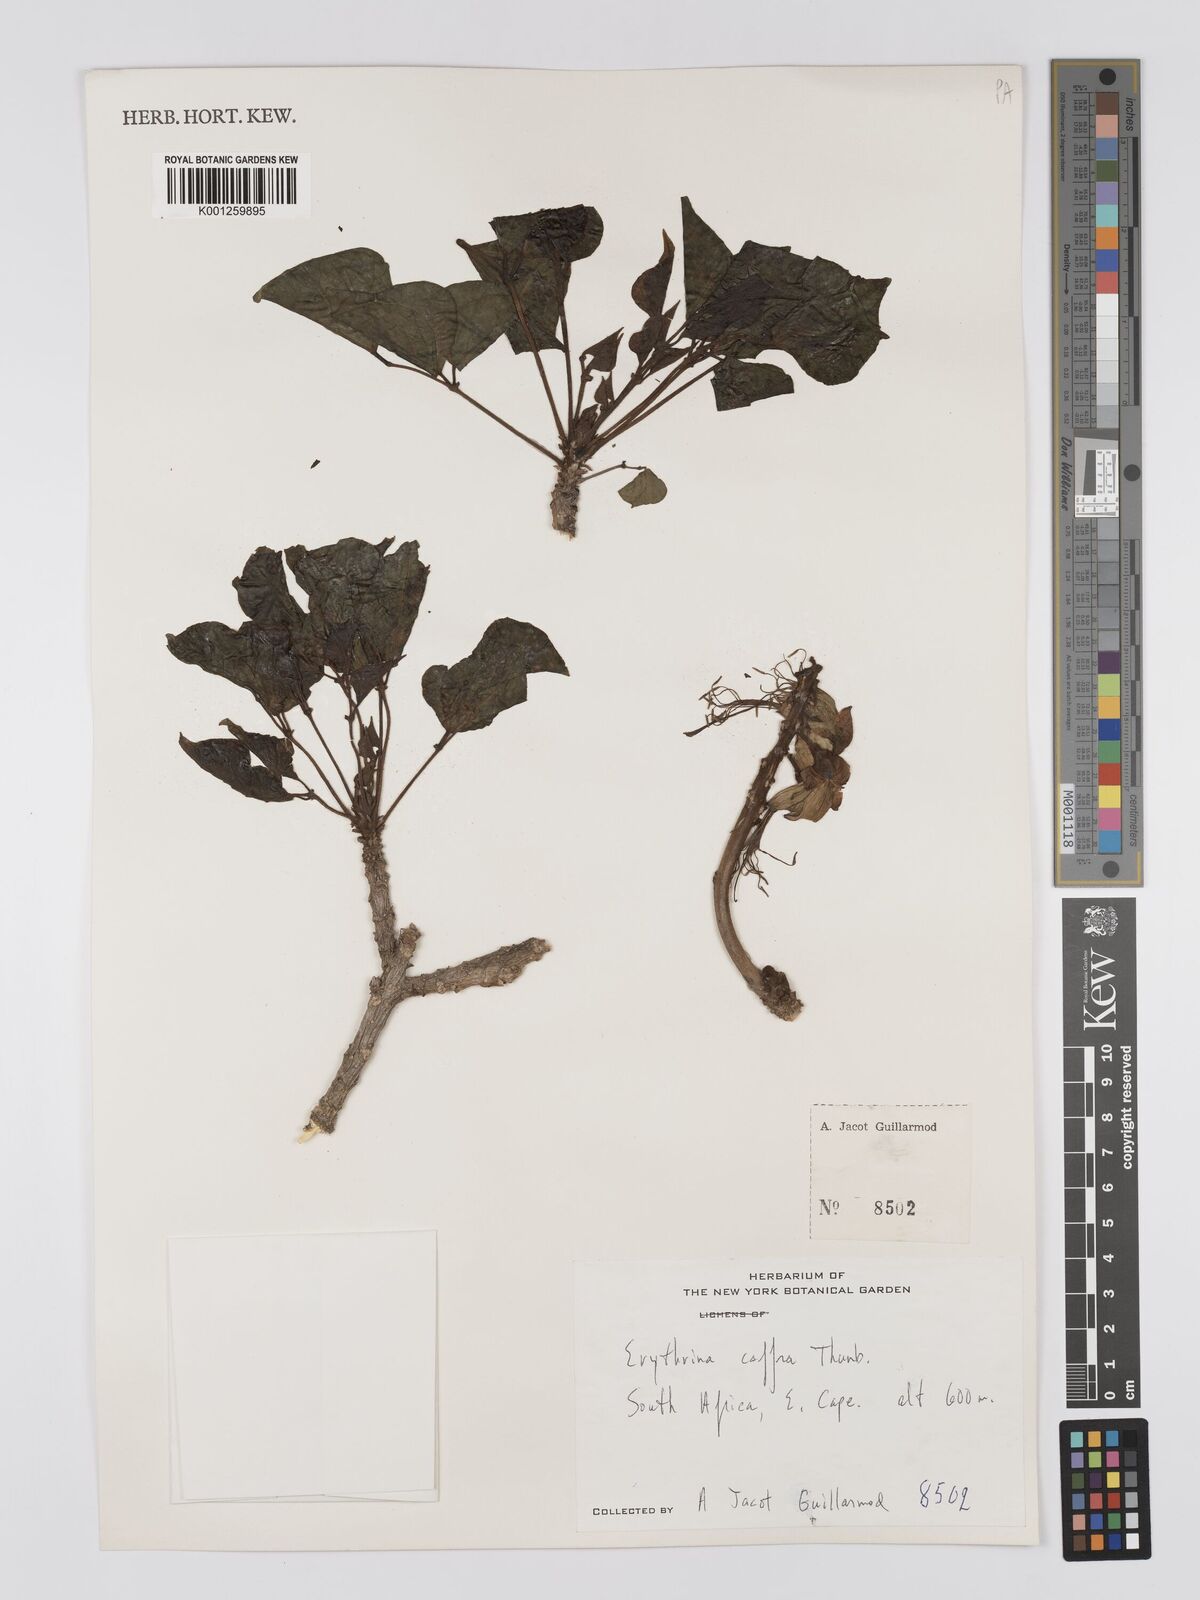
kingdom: Plantae
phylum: Tracheophyta
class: Magnoliopsida
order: Fabales
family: Fabaceae
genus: Erythrina
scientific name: Erythrina caffra
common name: Coast coral tree
